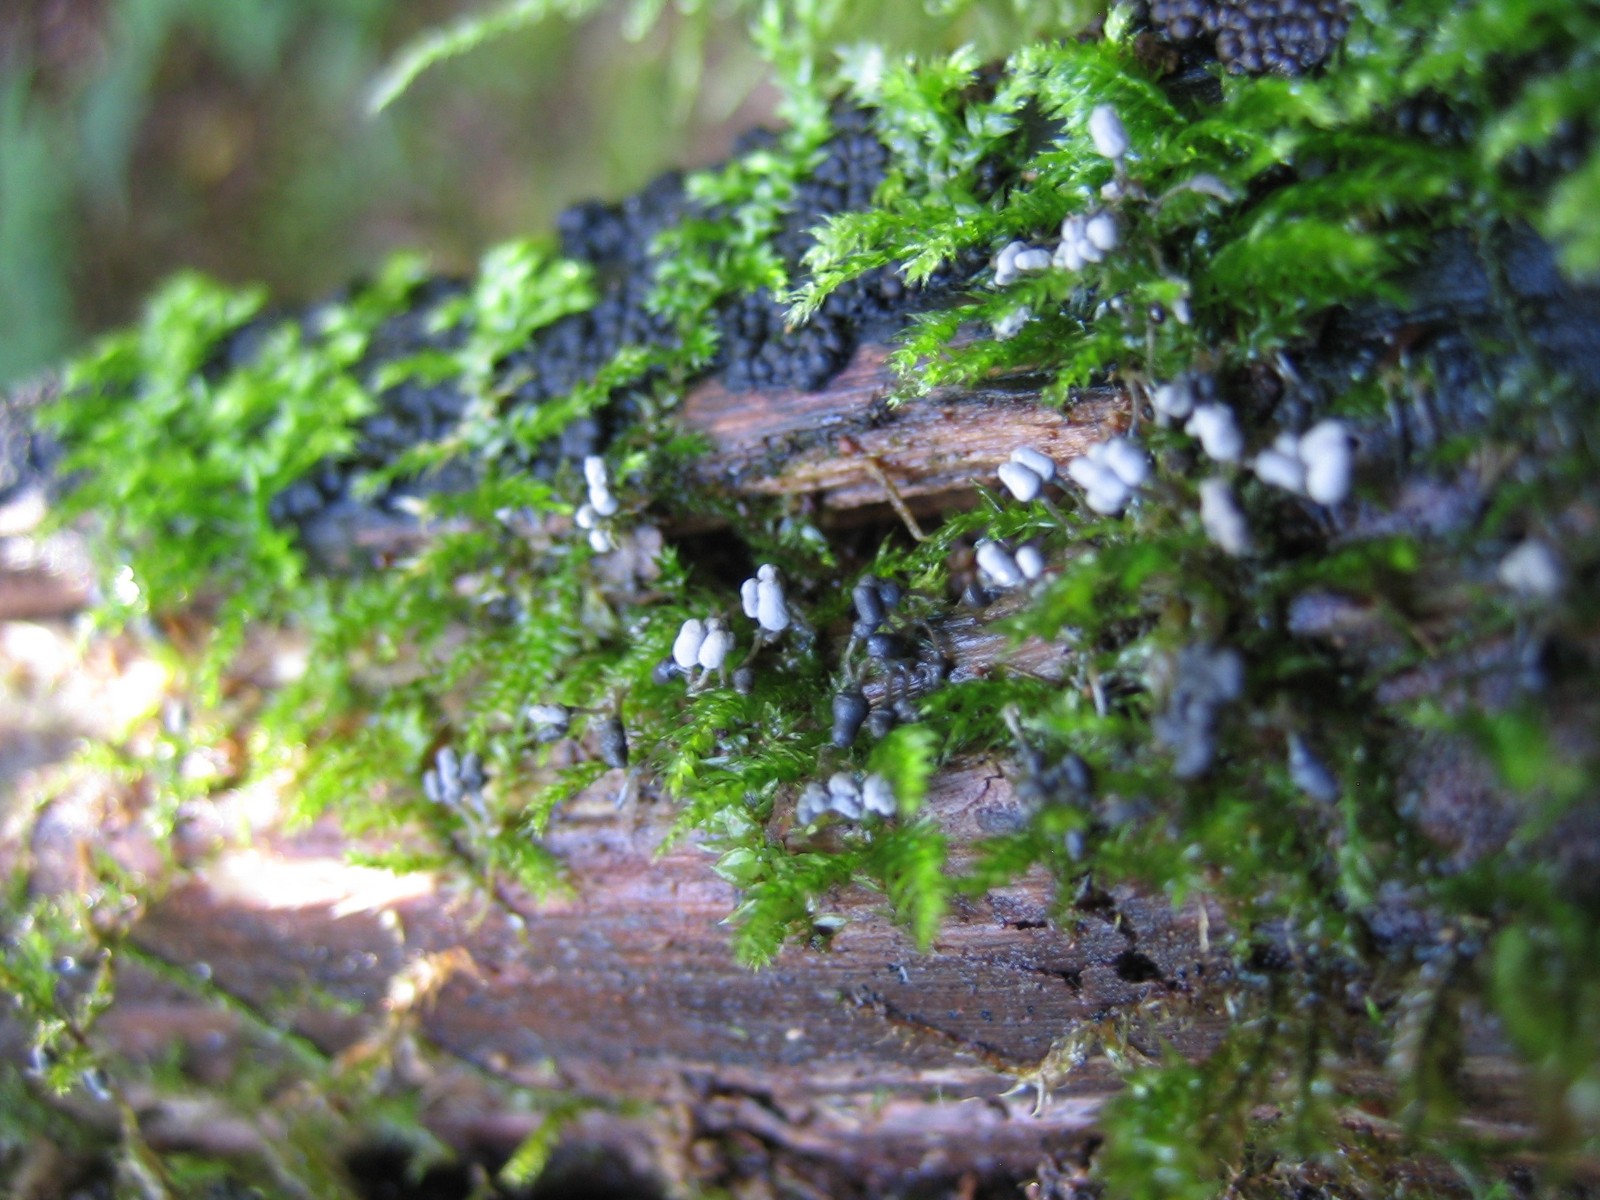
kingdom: Protozoa
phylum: Mycetozoa
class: Myxomycetes
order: Trichiales
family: Arcyriaceae
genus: Arcyria
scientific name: Arcyria cinerea
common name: White carnival candy slime mold
